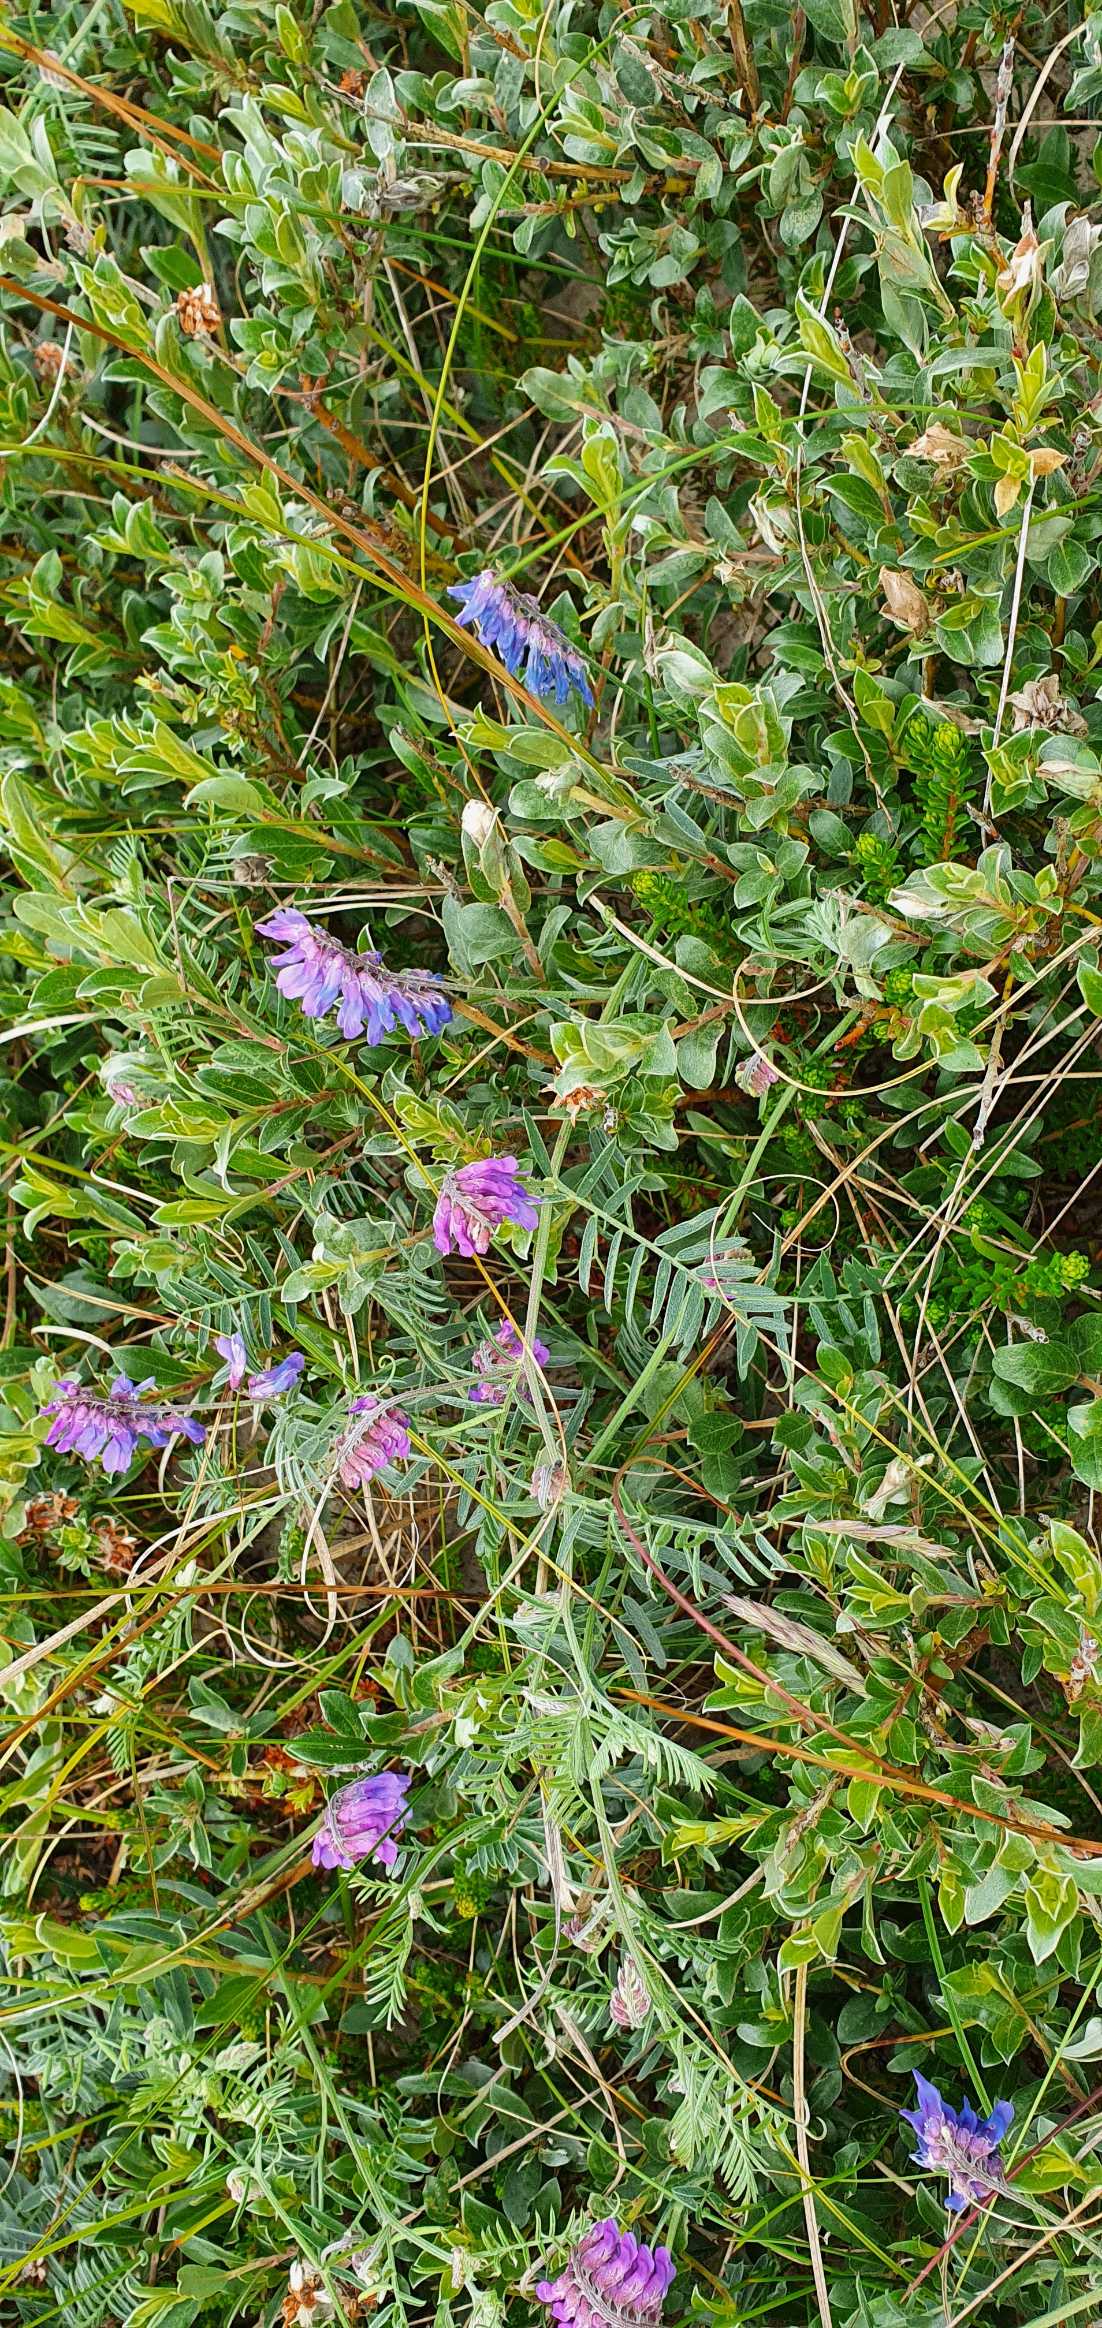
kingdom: Plantae
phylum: Tracheophyta
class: Magnoliopsida
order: Fabales
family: Fabaceae
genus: Vicia
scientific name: Vicia cracca
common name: Muse-vikke
